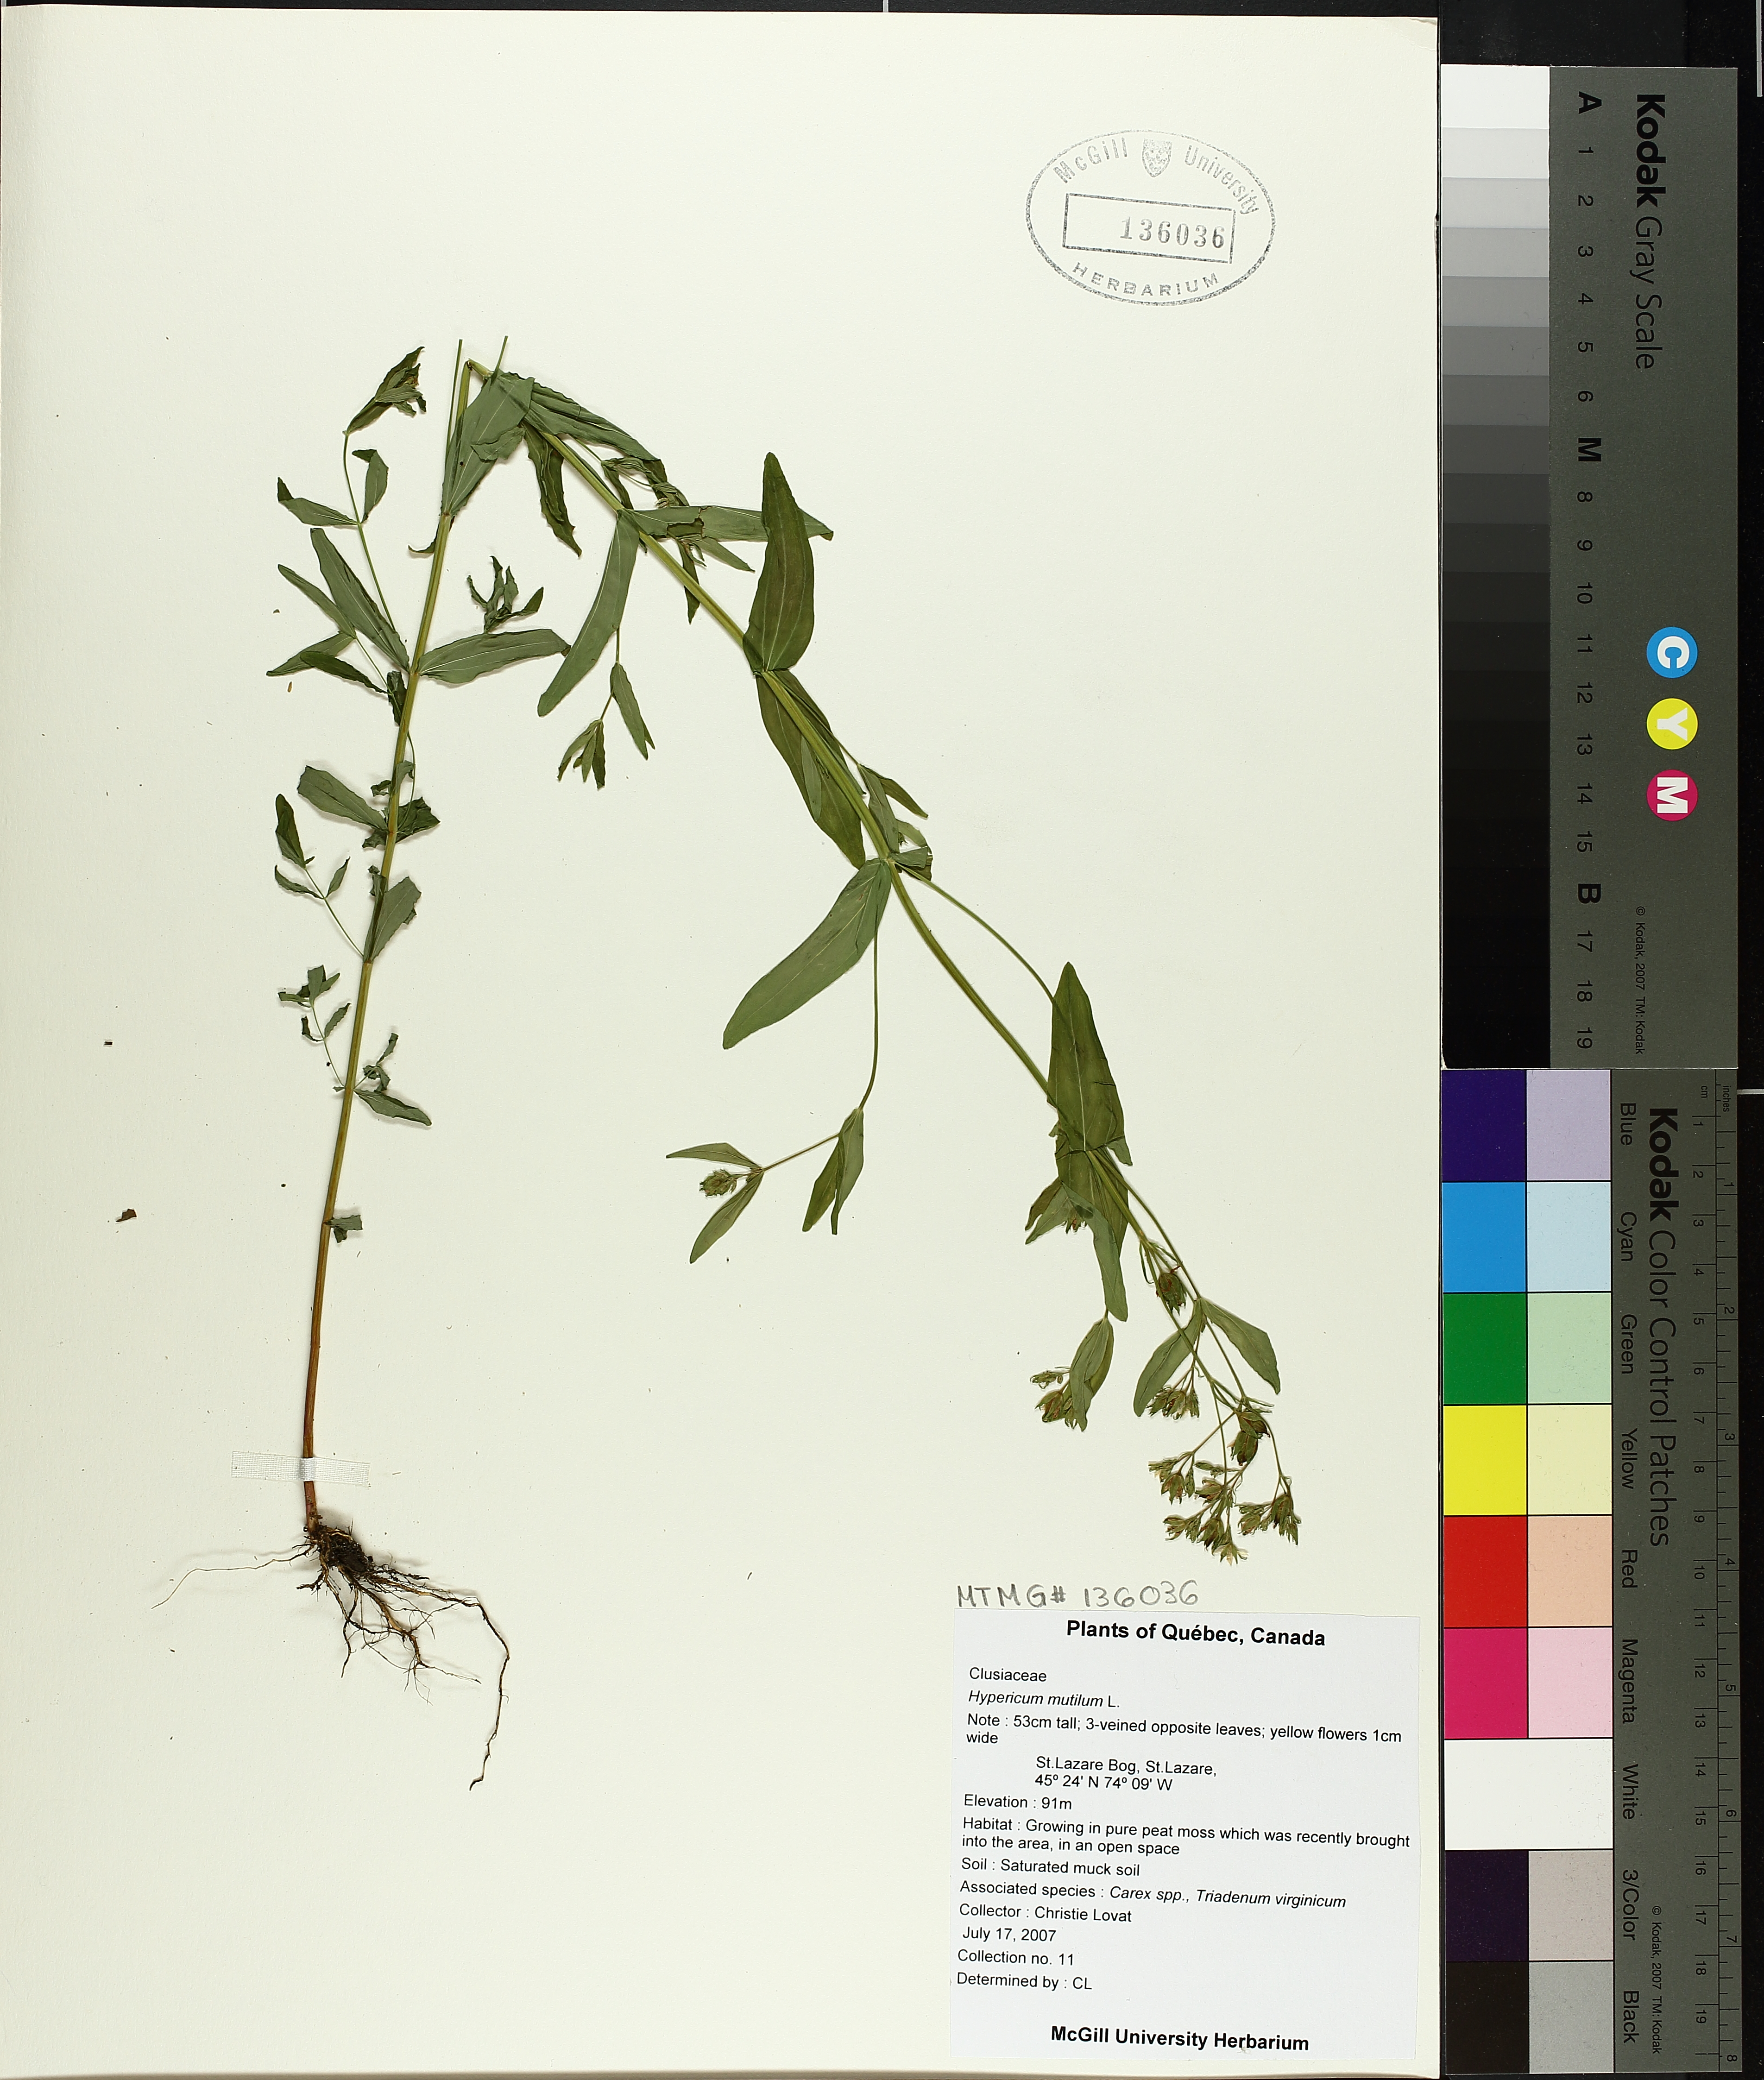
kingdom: Plantae
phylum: Tracheophyta
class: Magnoliopsida
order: Malpighiales
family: Hypericaceae
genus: Hypericum
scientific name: Hypericum mutilum
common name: Dwarf st. john's-wort
